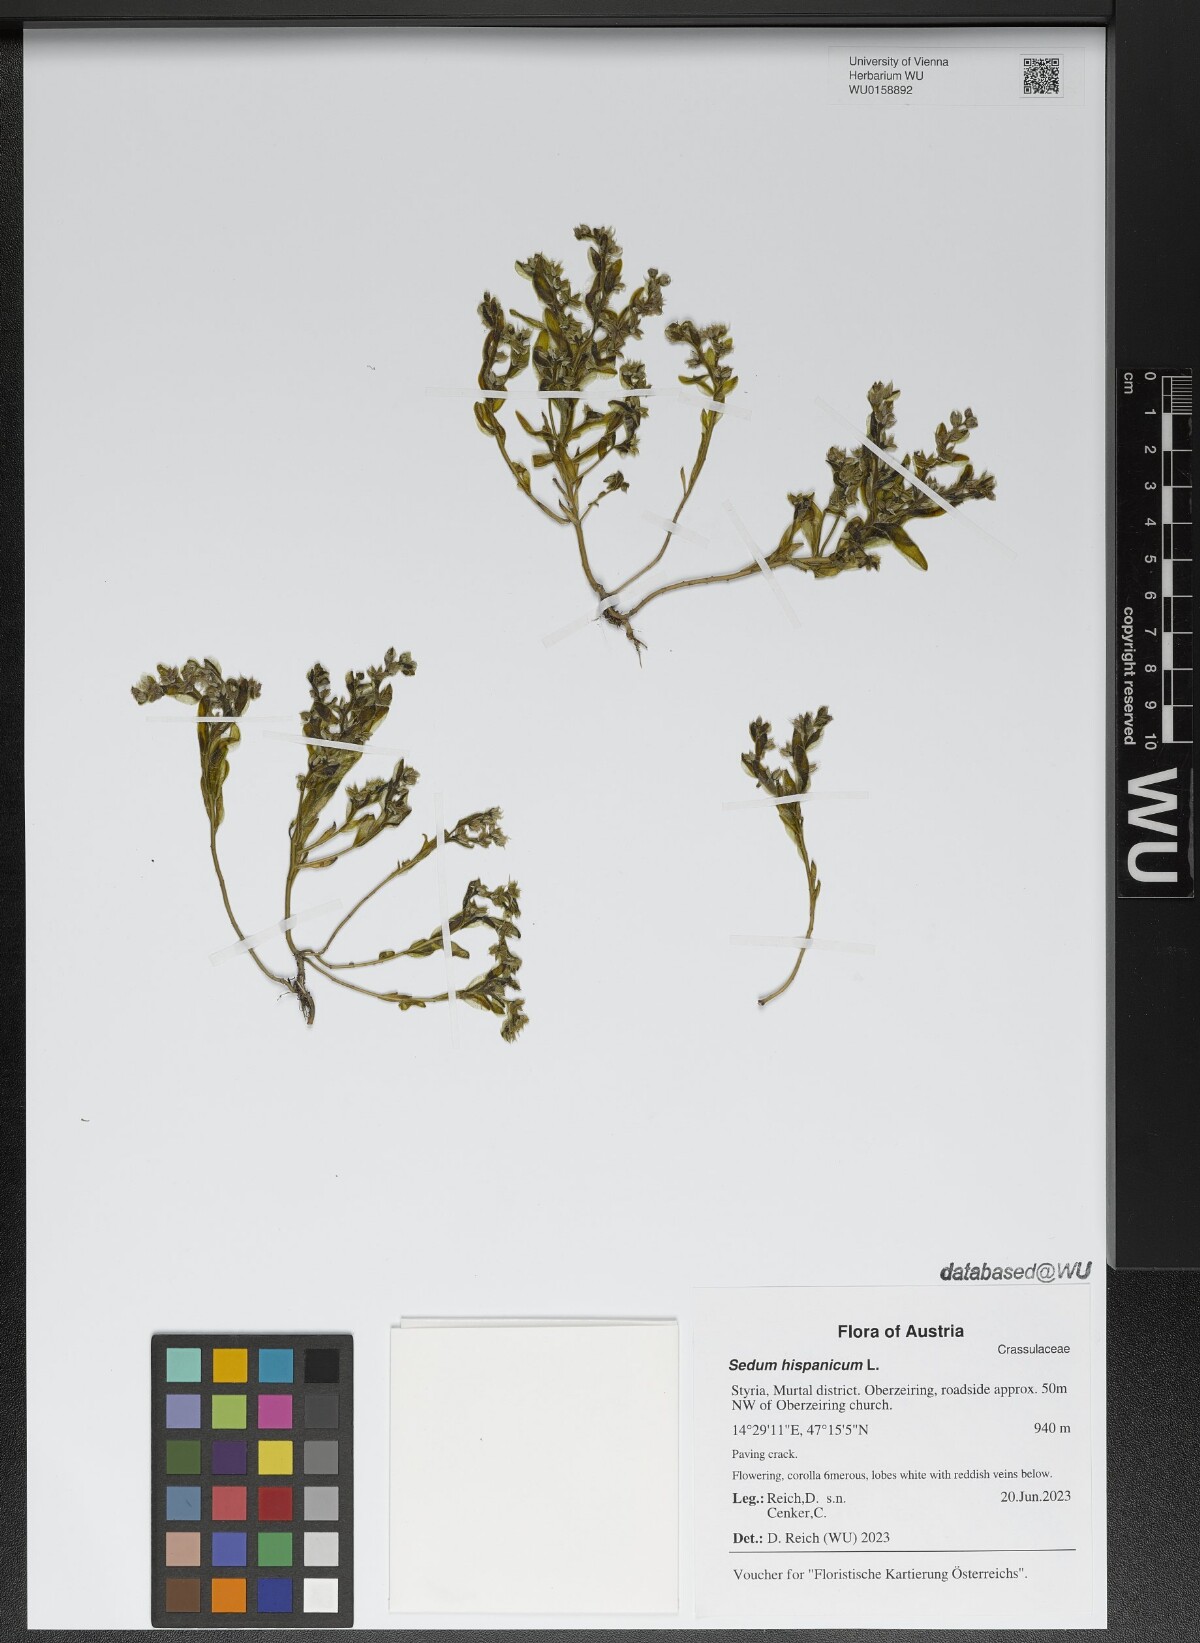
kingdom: Plantae
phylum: Tracheophyta
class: Magnoliopsida
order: Saxifragales
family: Crassulaceae
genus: Sedum
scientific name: Sedum hispanicum
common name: Spanish stonecrop
